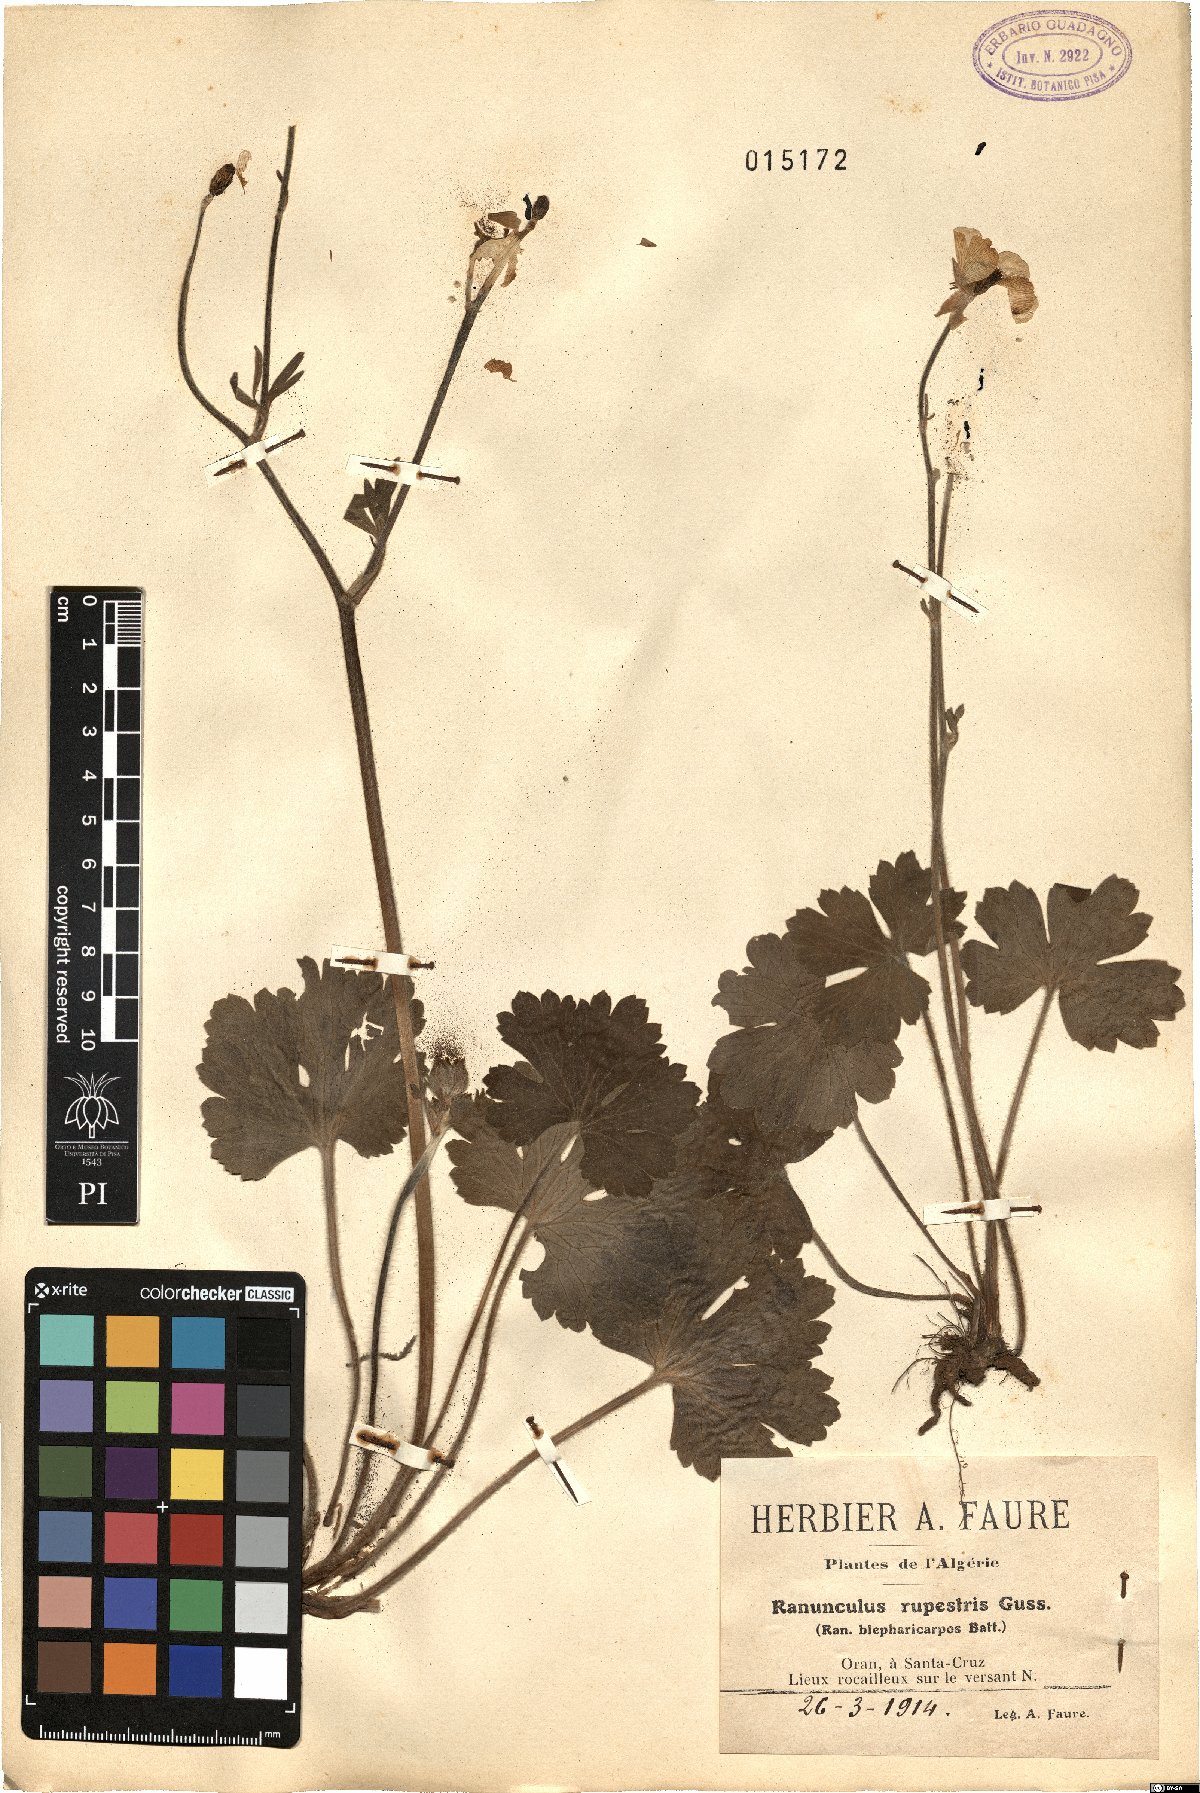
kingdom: Plantae
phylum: Tracheophyta
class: Magnoliopsida
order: Ranunculales
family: Ranunculaceae
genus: Ranunculus
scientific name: Ranunculus spicatus
